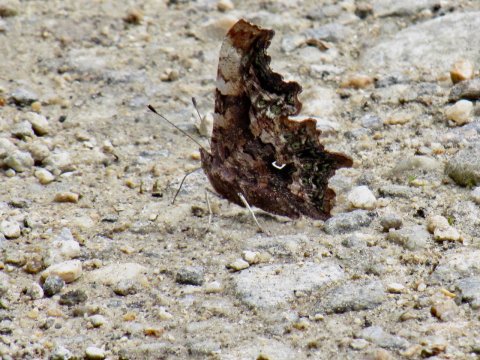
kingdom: Animalia
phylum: Arthropoda
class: Insecta
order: Lepidoptera
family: Nymphalidae
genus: Polygonia
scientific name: Polygonia faunus
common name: Green Comma
